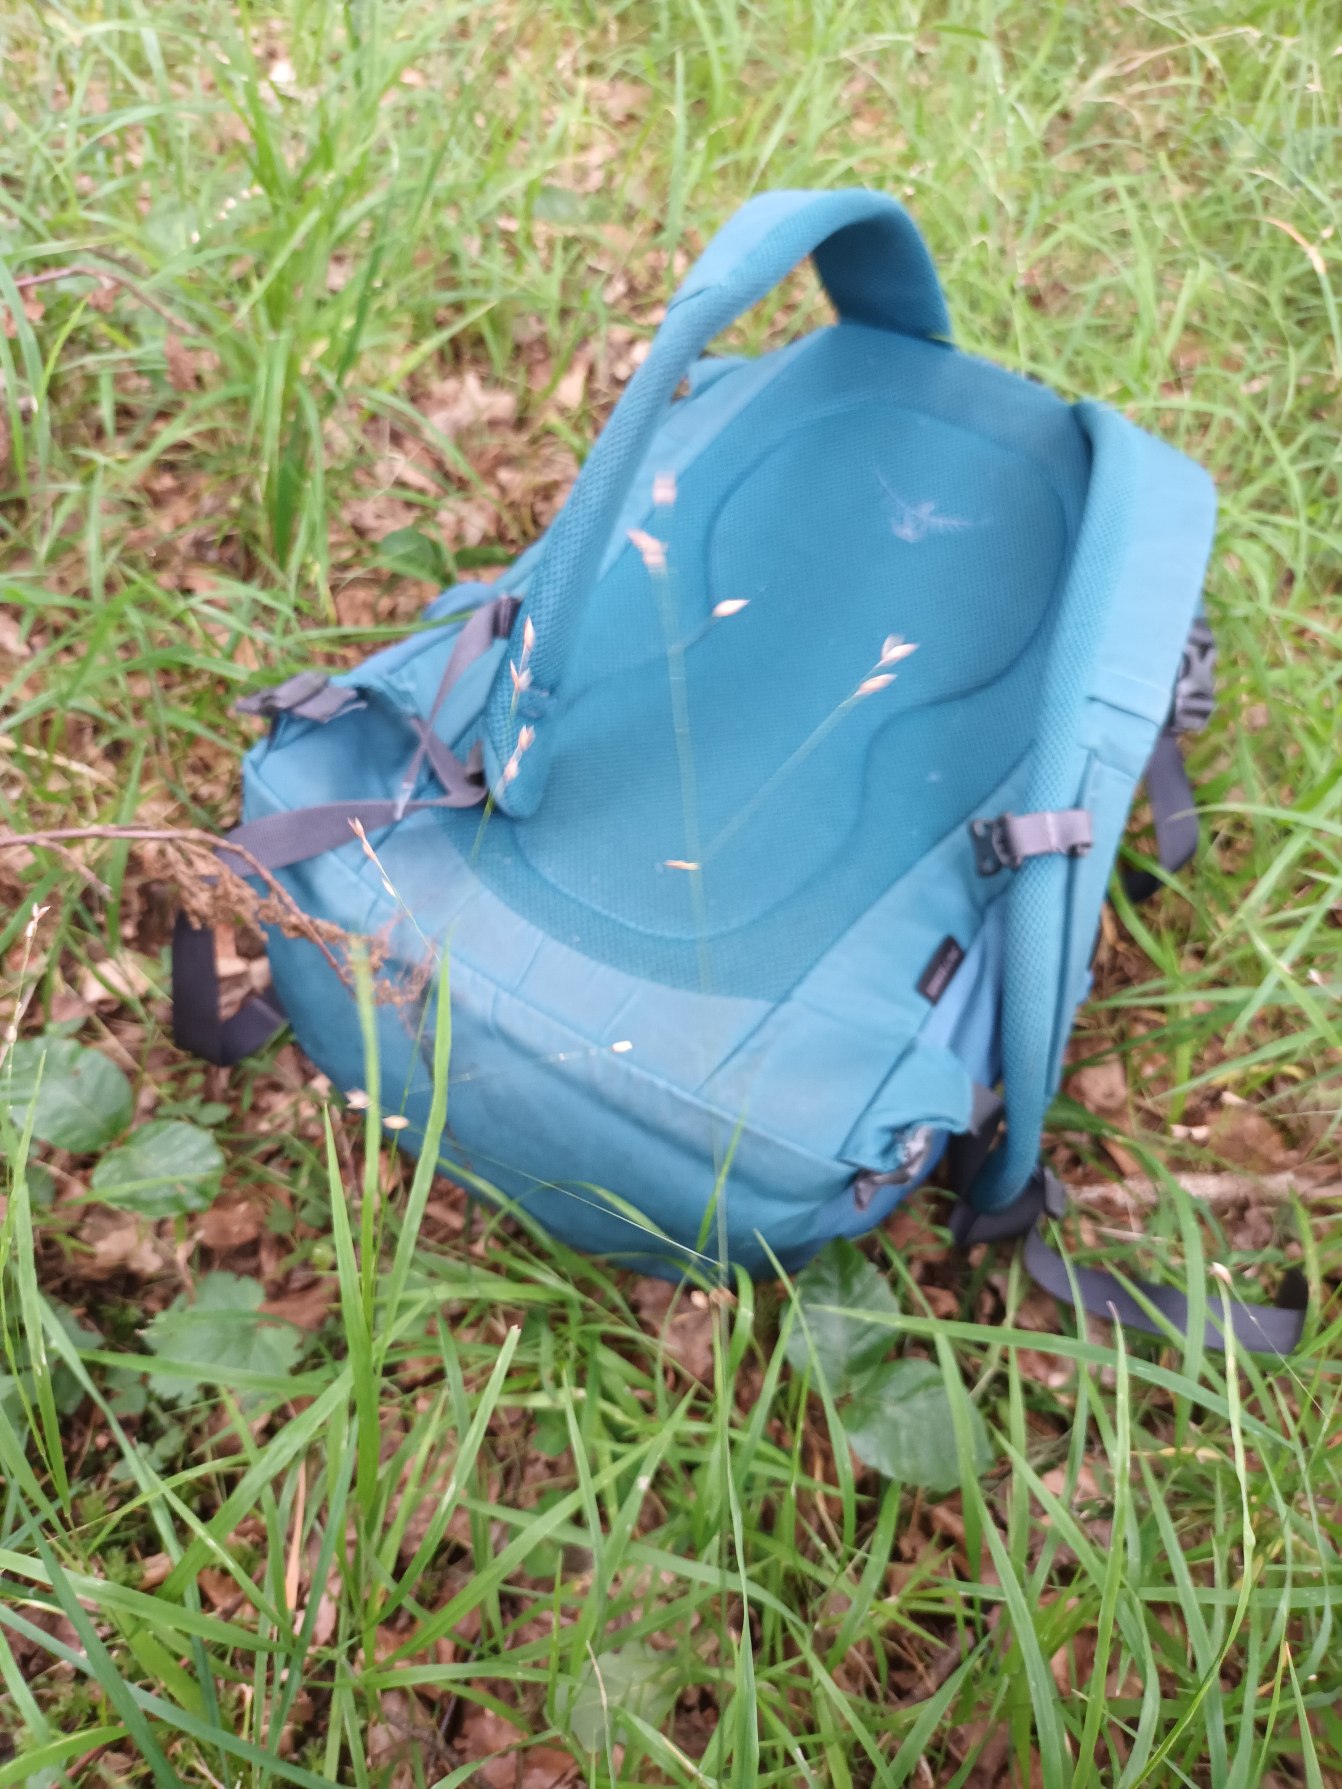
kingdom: Plantae
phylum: Tracheophyta
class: Liliopsida
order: Poales
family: Poaceae
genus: Melica
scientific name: Melica uniflora
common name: Enblomstret flitteraks
